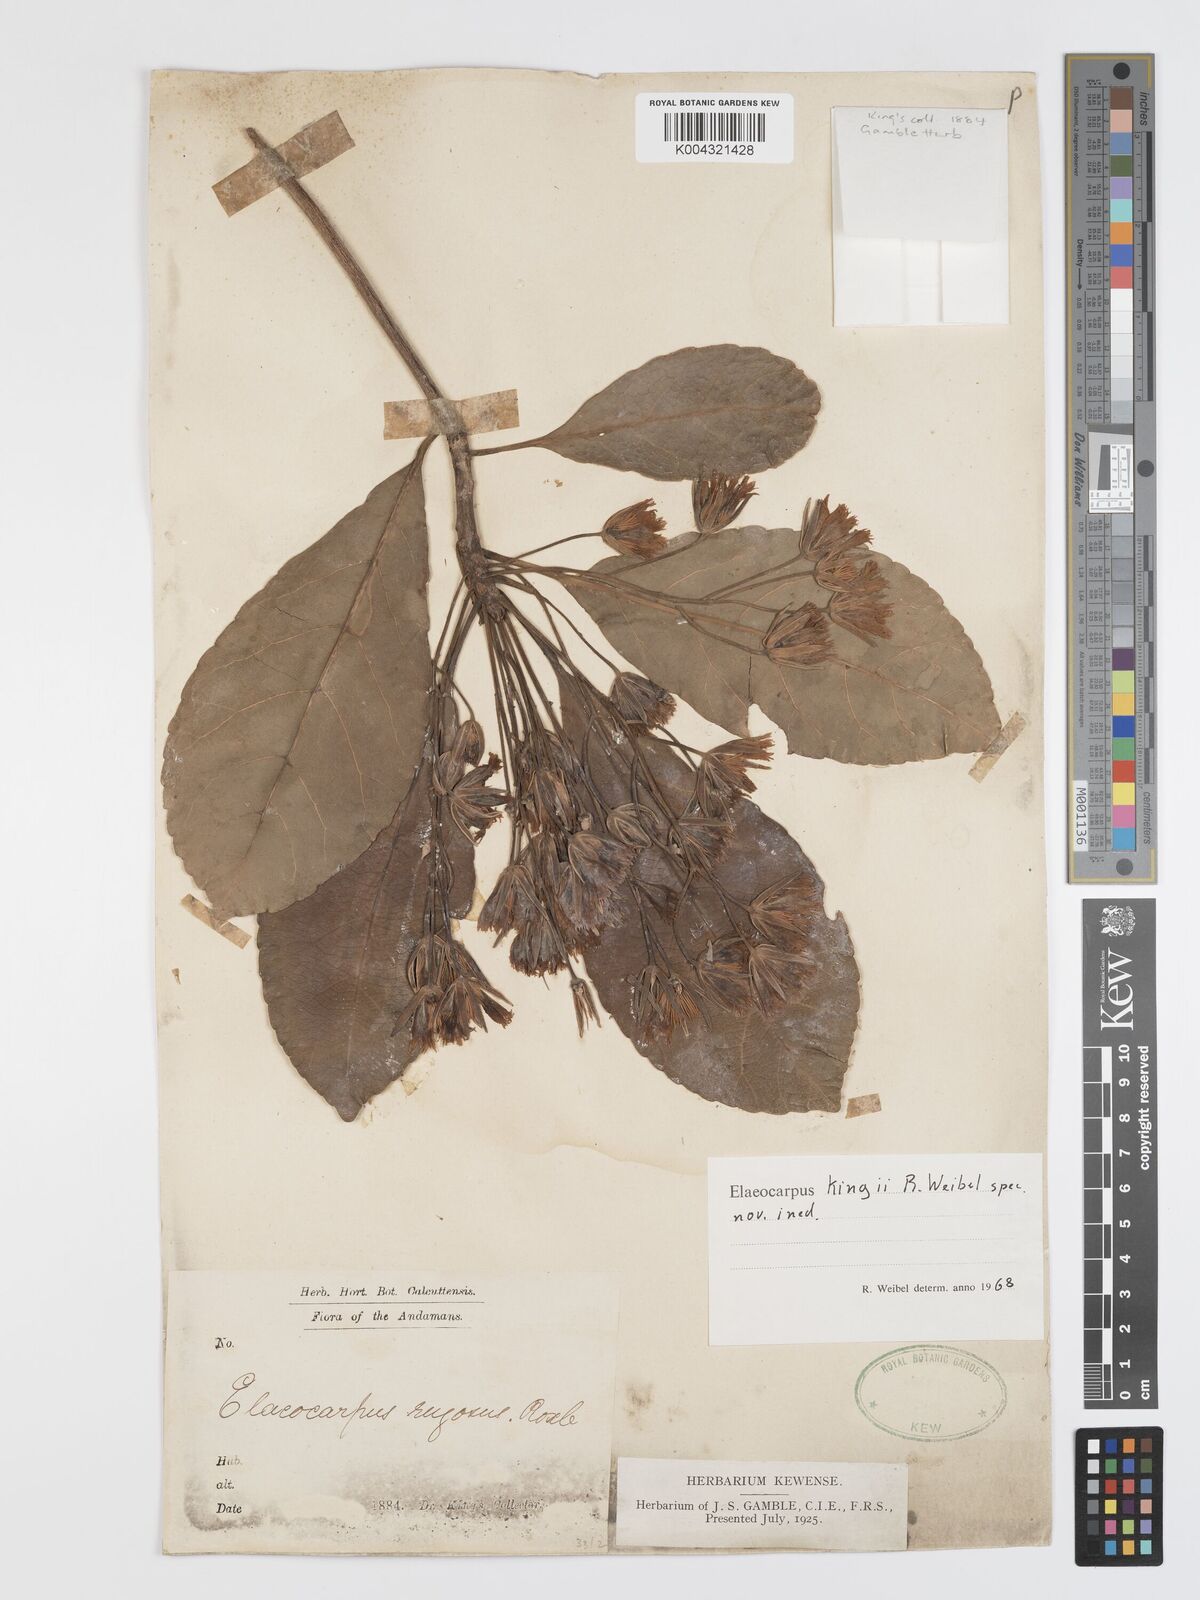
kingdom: Plantae
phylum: Tracheophyta
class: Magnoliopsida
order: Oxalidales
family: Elaeocarpaceae
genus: Elaeocarpus
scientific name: Elaeocarpus
